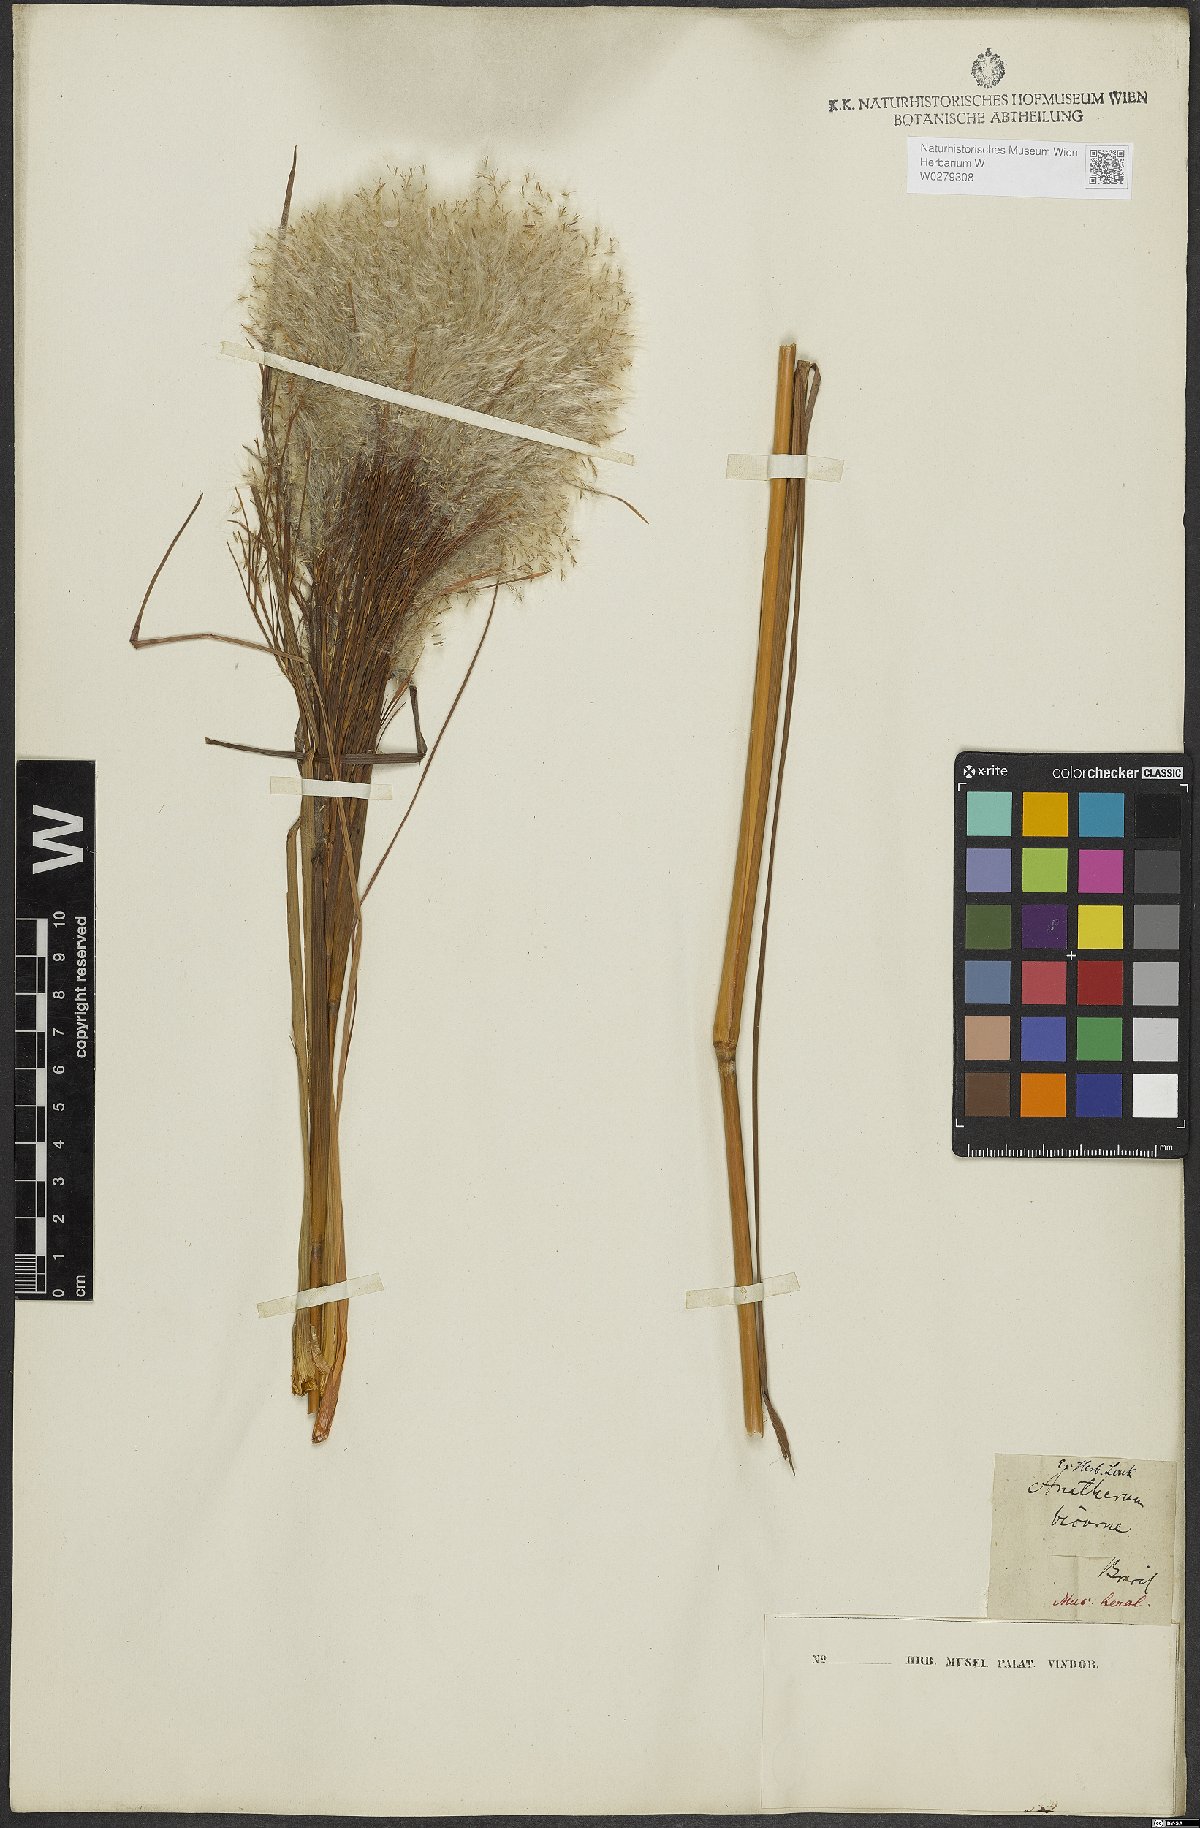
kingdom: Plantae
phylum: Tracheophyta
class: Liliopsida
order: Poales
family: Poaceae
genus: Andropogon
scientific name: Andropogon bicornis
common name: West indian foxtail grass
